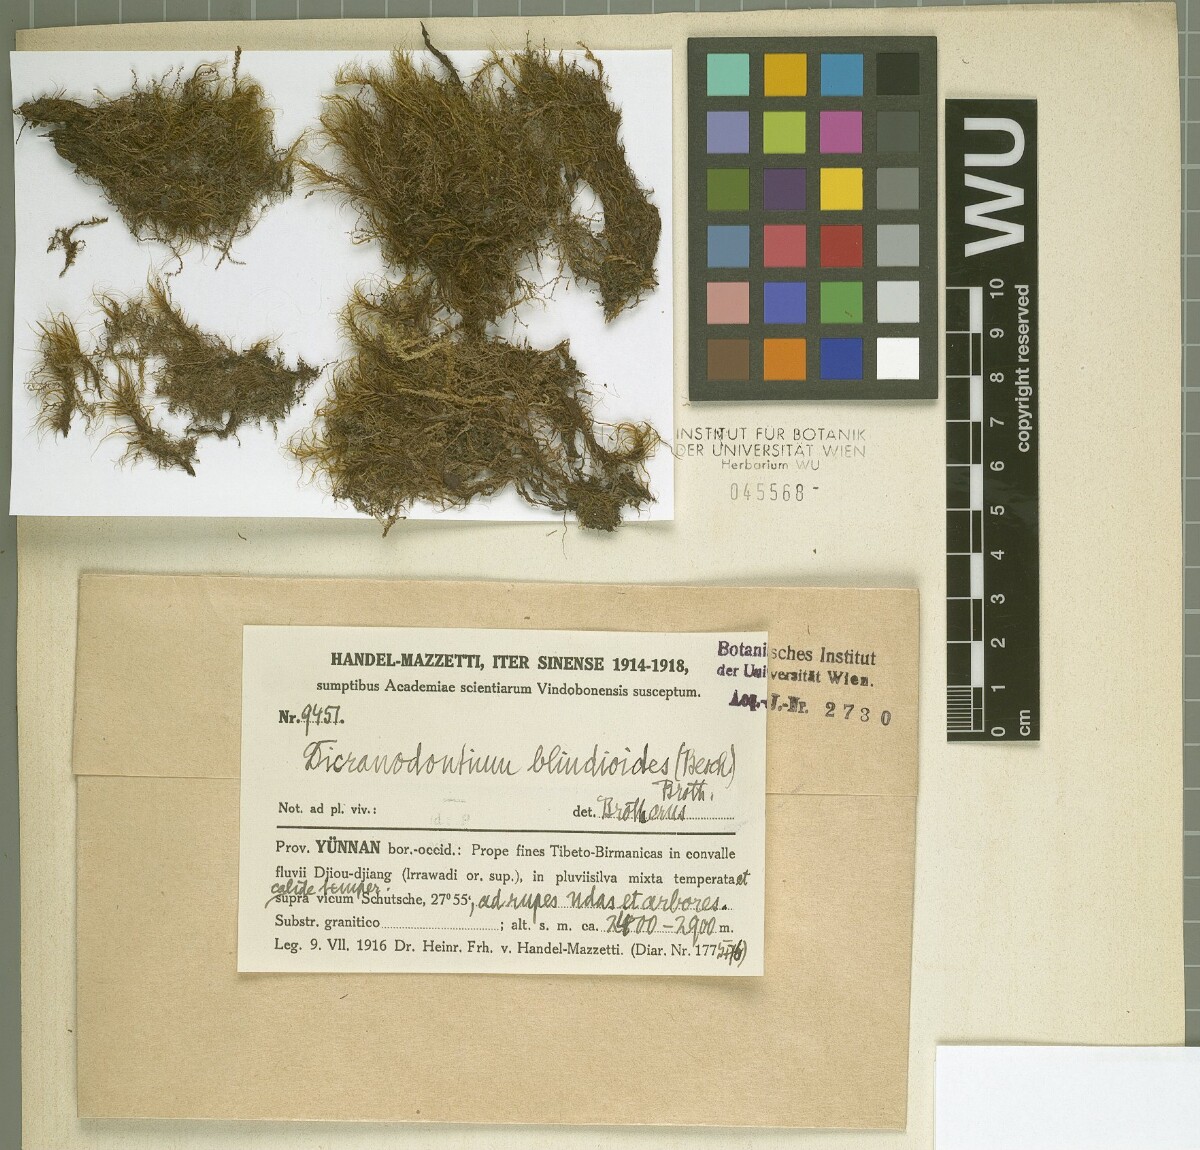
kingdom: Plantae
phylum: Bryophyta
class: Bryopsida
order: Dicranales
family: Leucobryaceae
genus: Dicranodontium
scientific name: Dicranodontium uncinatum
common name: Curve-leaved bow-moss
